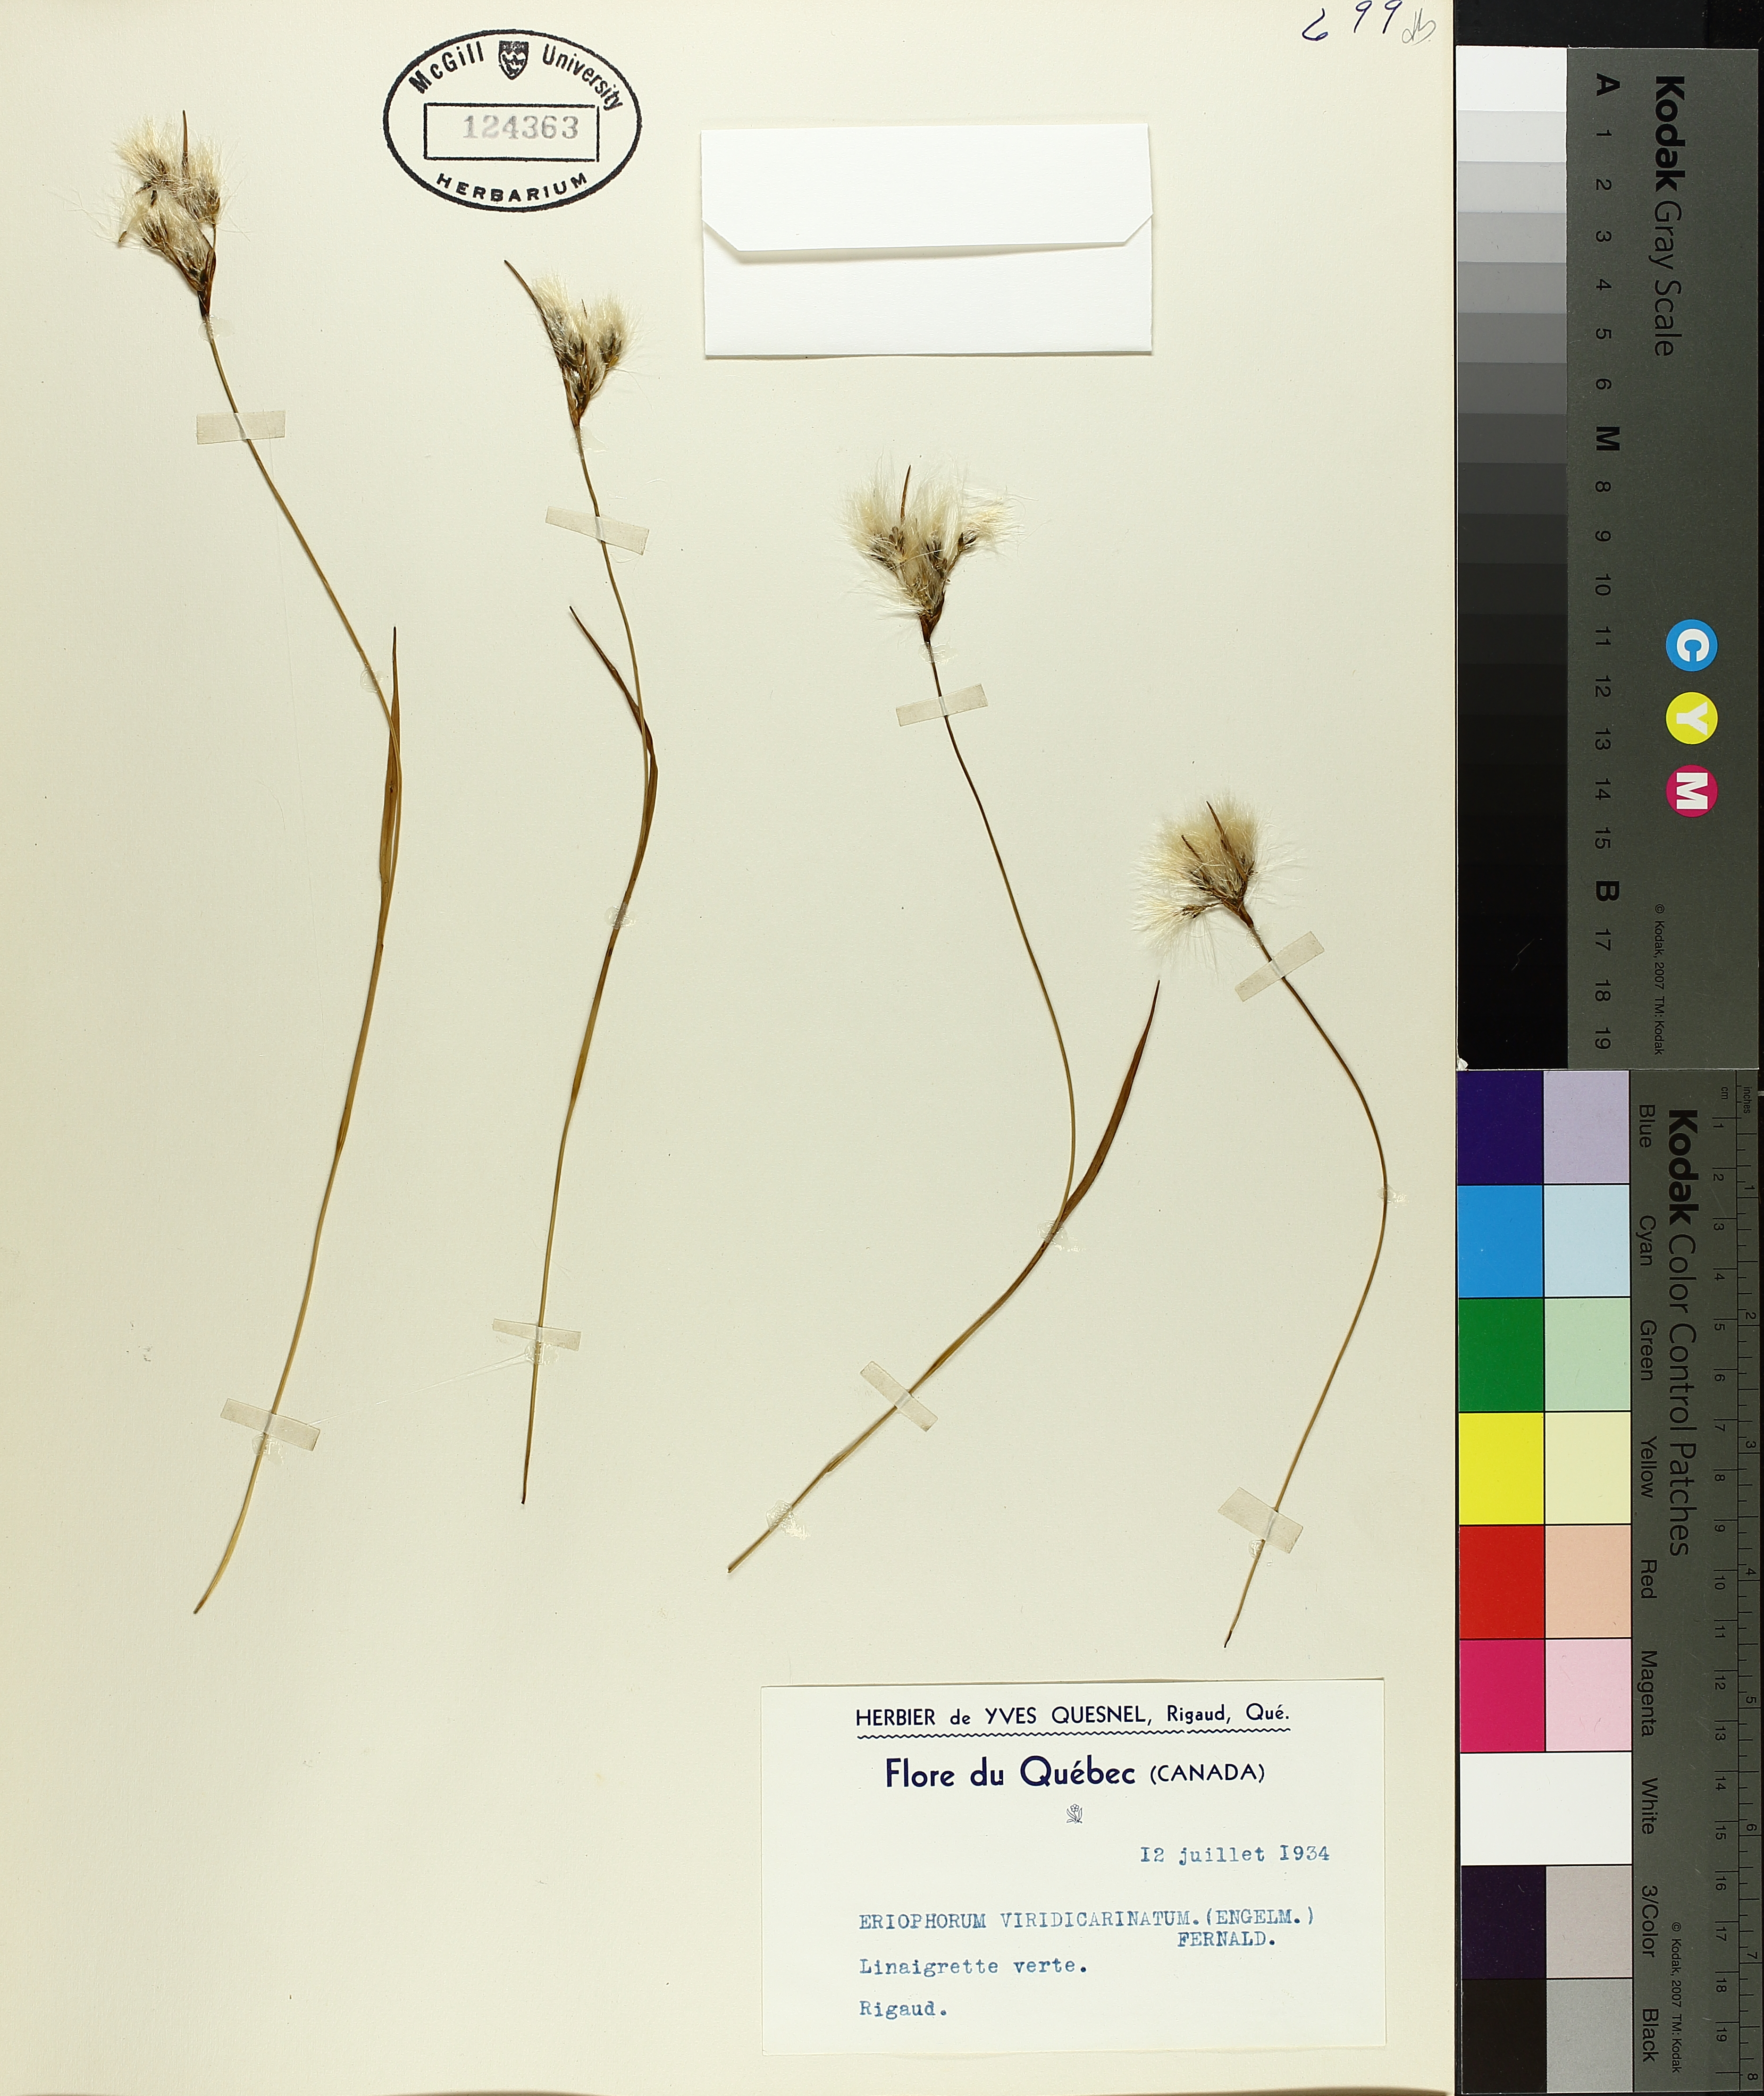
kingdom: Plantae
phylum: Tracheophyta
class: Liliopsida
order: Poales
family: Cyperaceae
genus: Eriophorum
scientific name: Eriophorum viridicarinatum
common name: Green-keeled cottongrass
